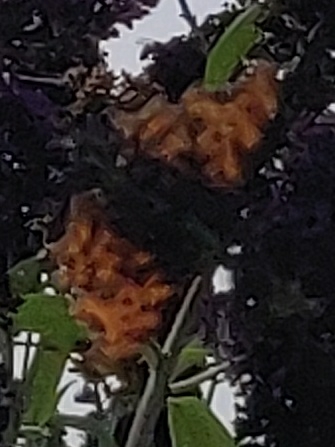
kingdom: Animalia
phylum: Arthropoda
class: Insecta
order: Lepidoptera
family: Nymphalidae
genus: Polygonia
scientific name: Polygonia c-album
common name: Det hvide C
